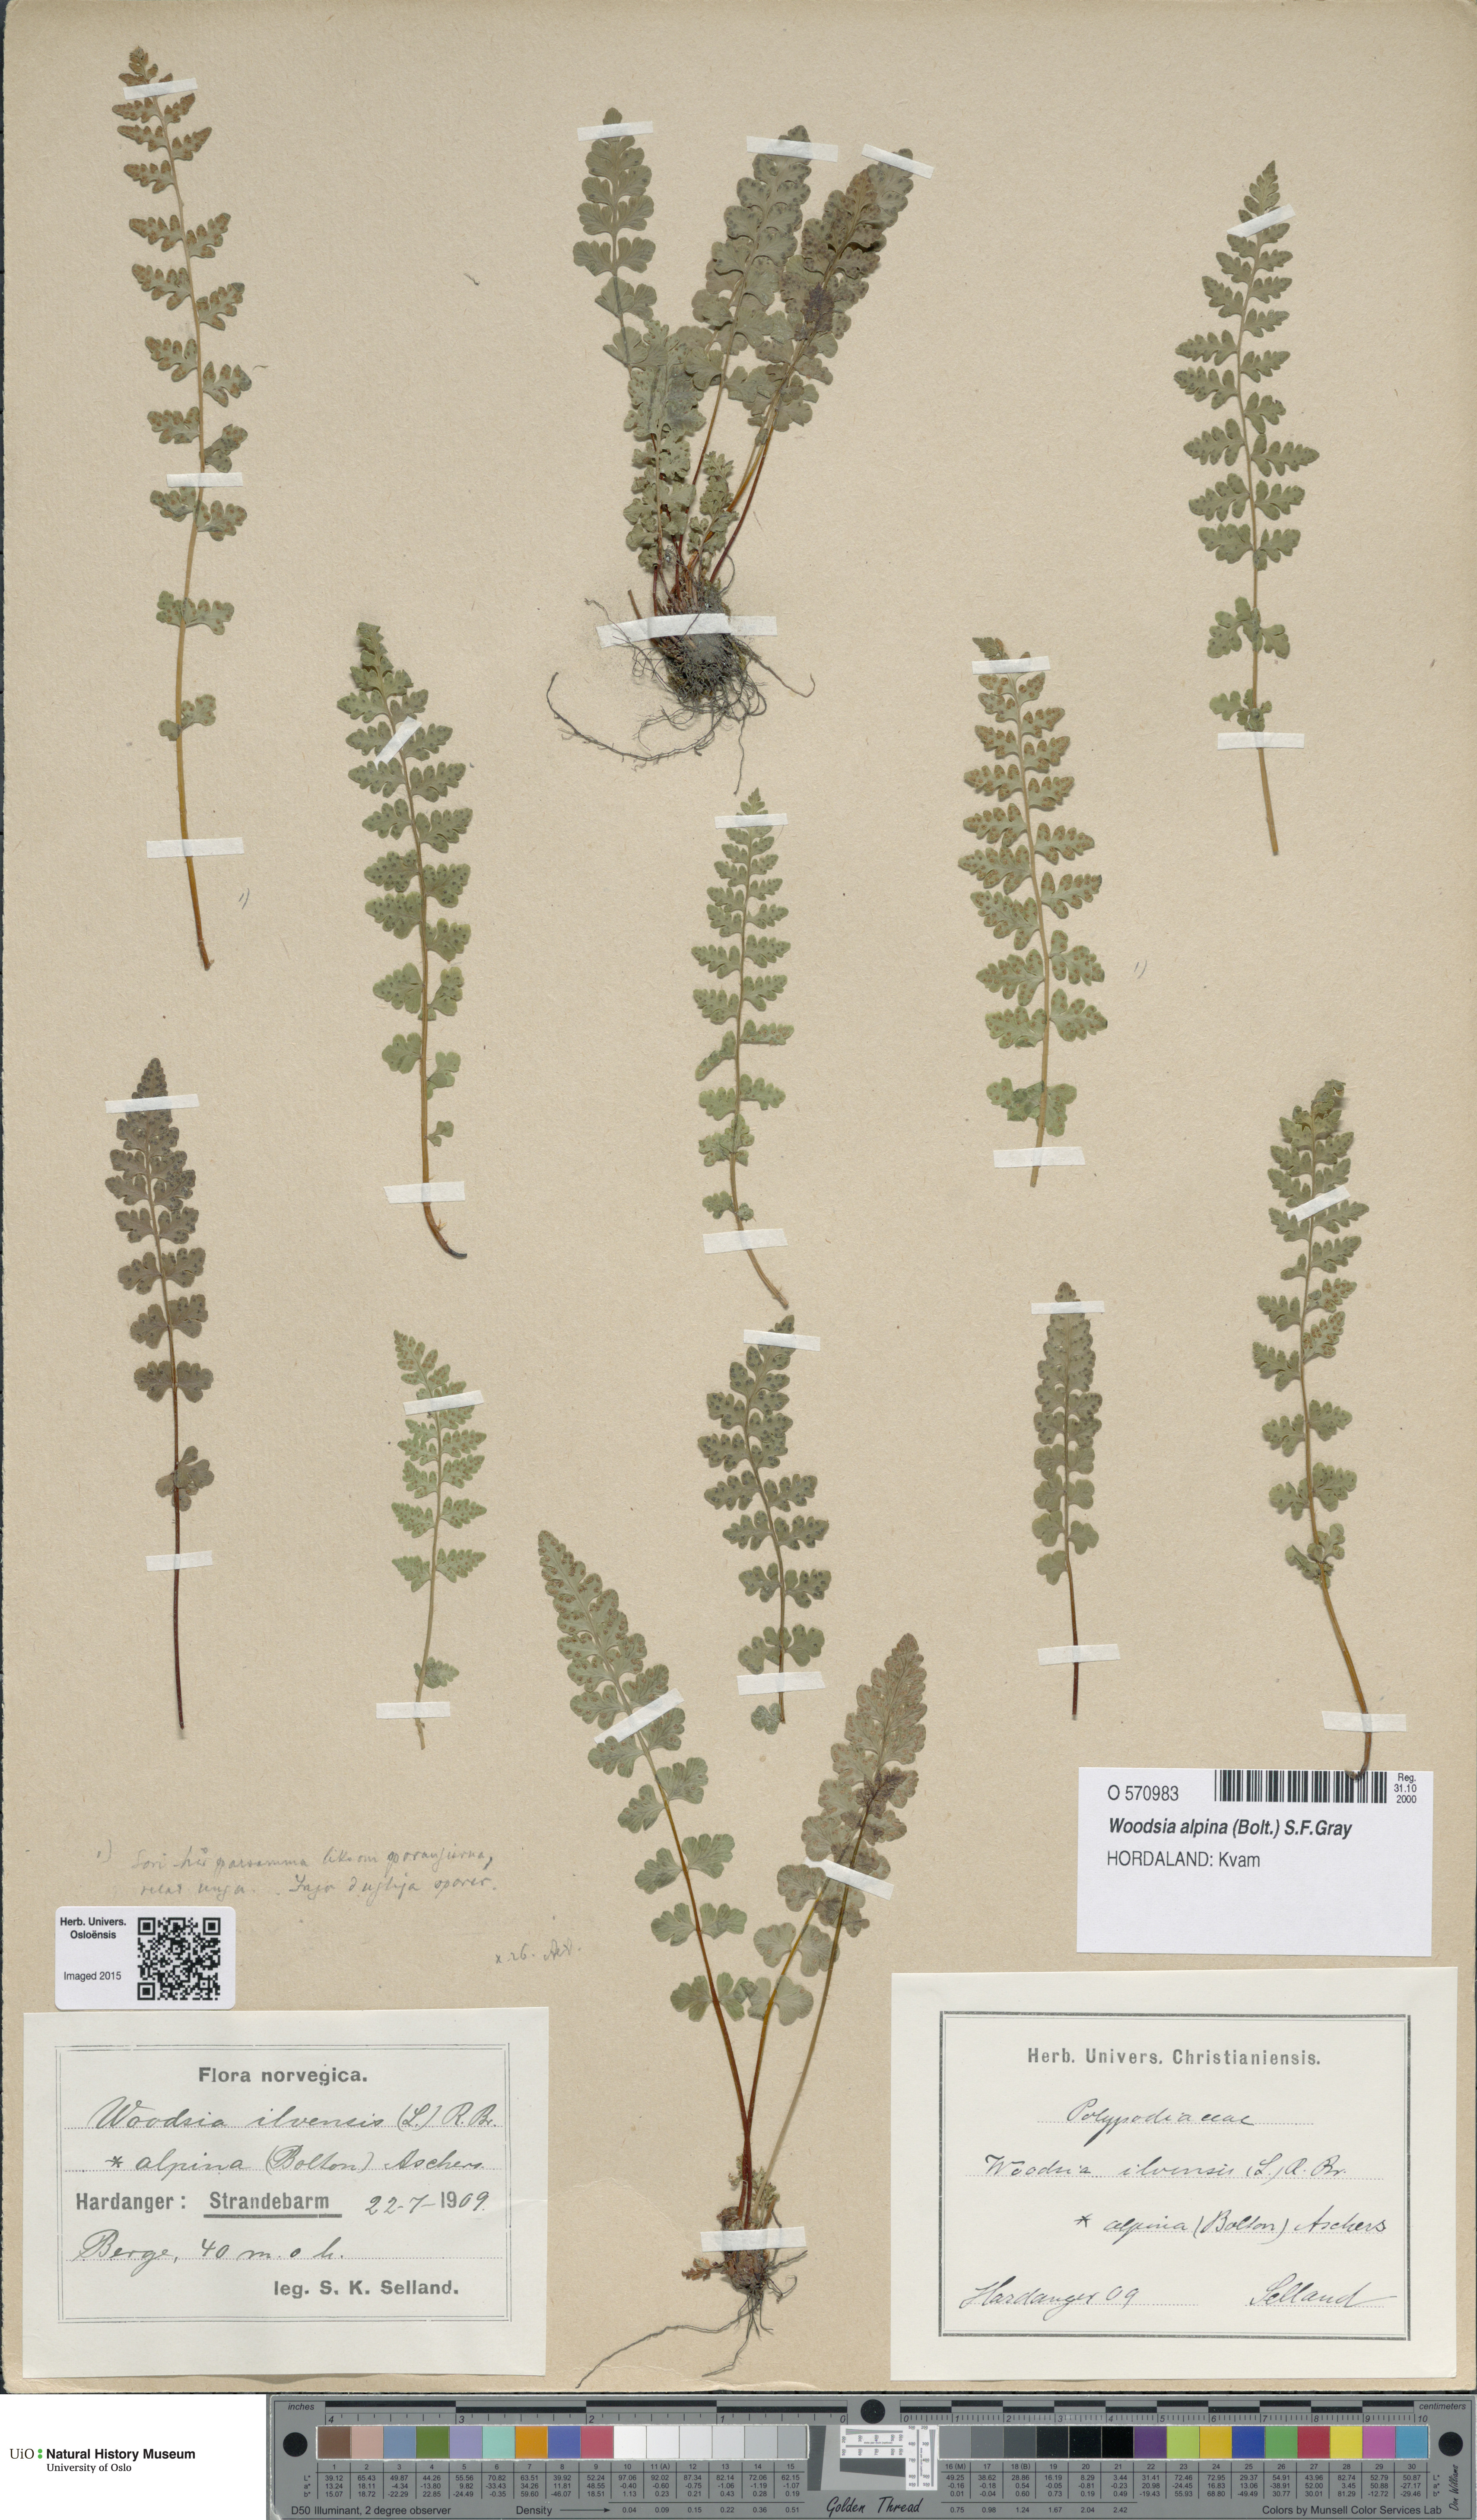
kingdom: Plantae
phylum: Tracheophyta
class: Polypodiopsida
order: Polypodiales
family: Woodsiaceae
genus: Woodsia
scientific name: Woodsia alpina
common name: Alpine woodsia
